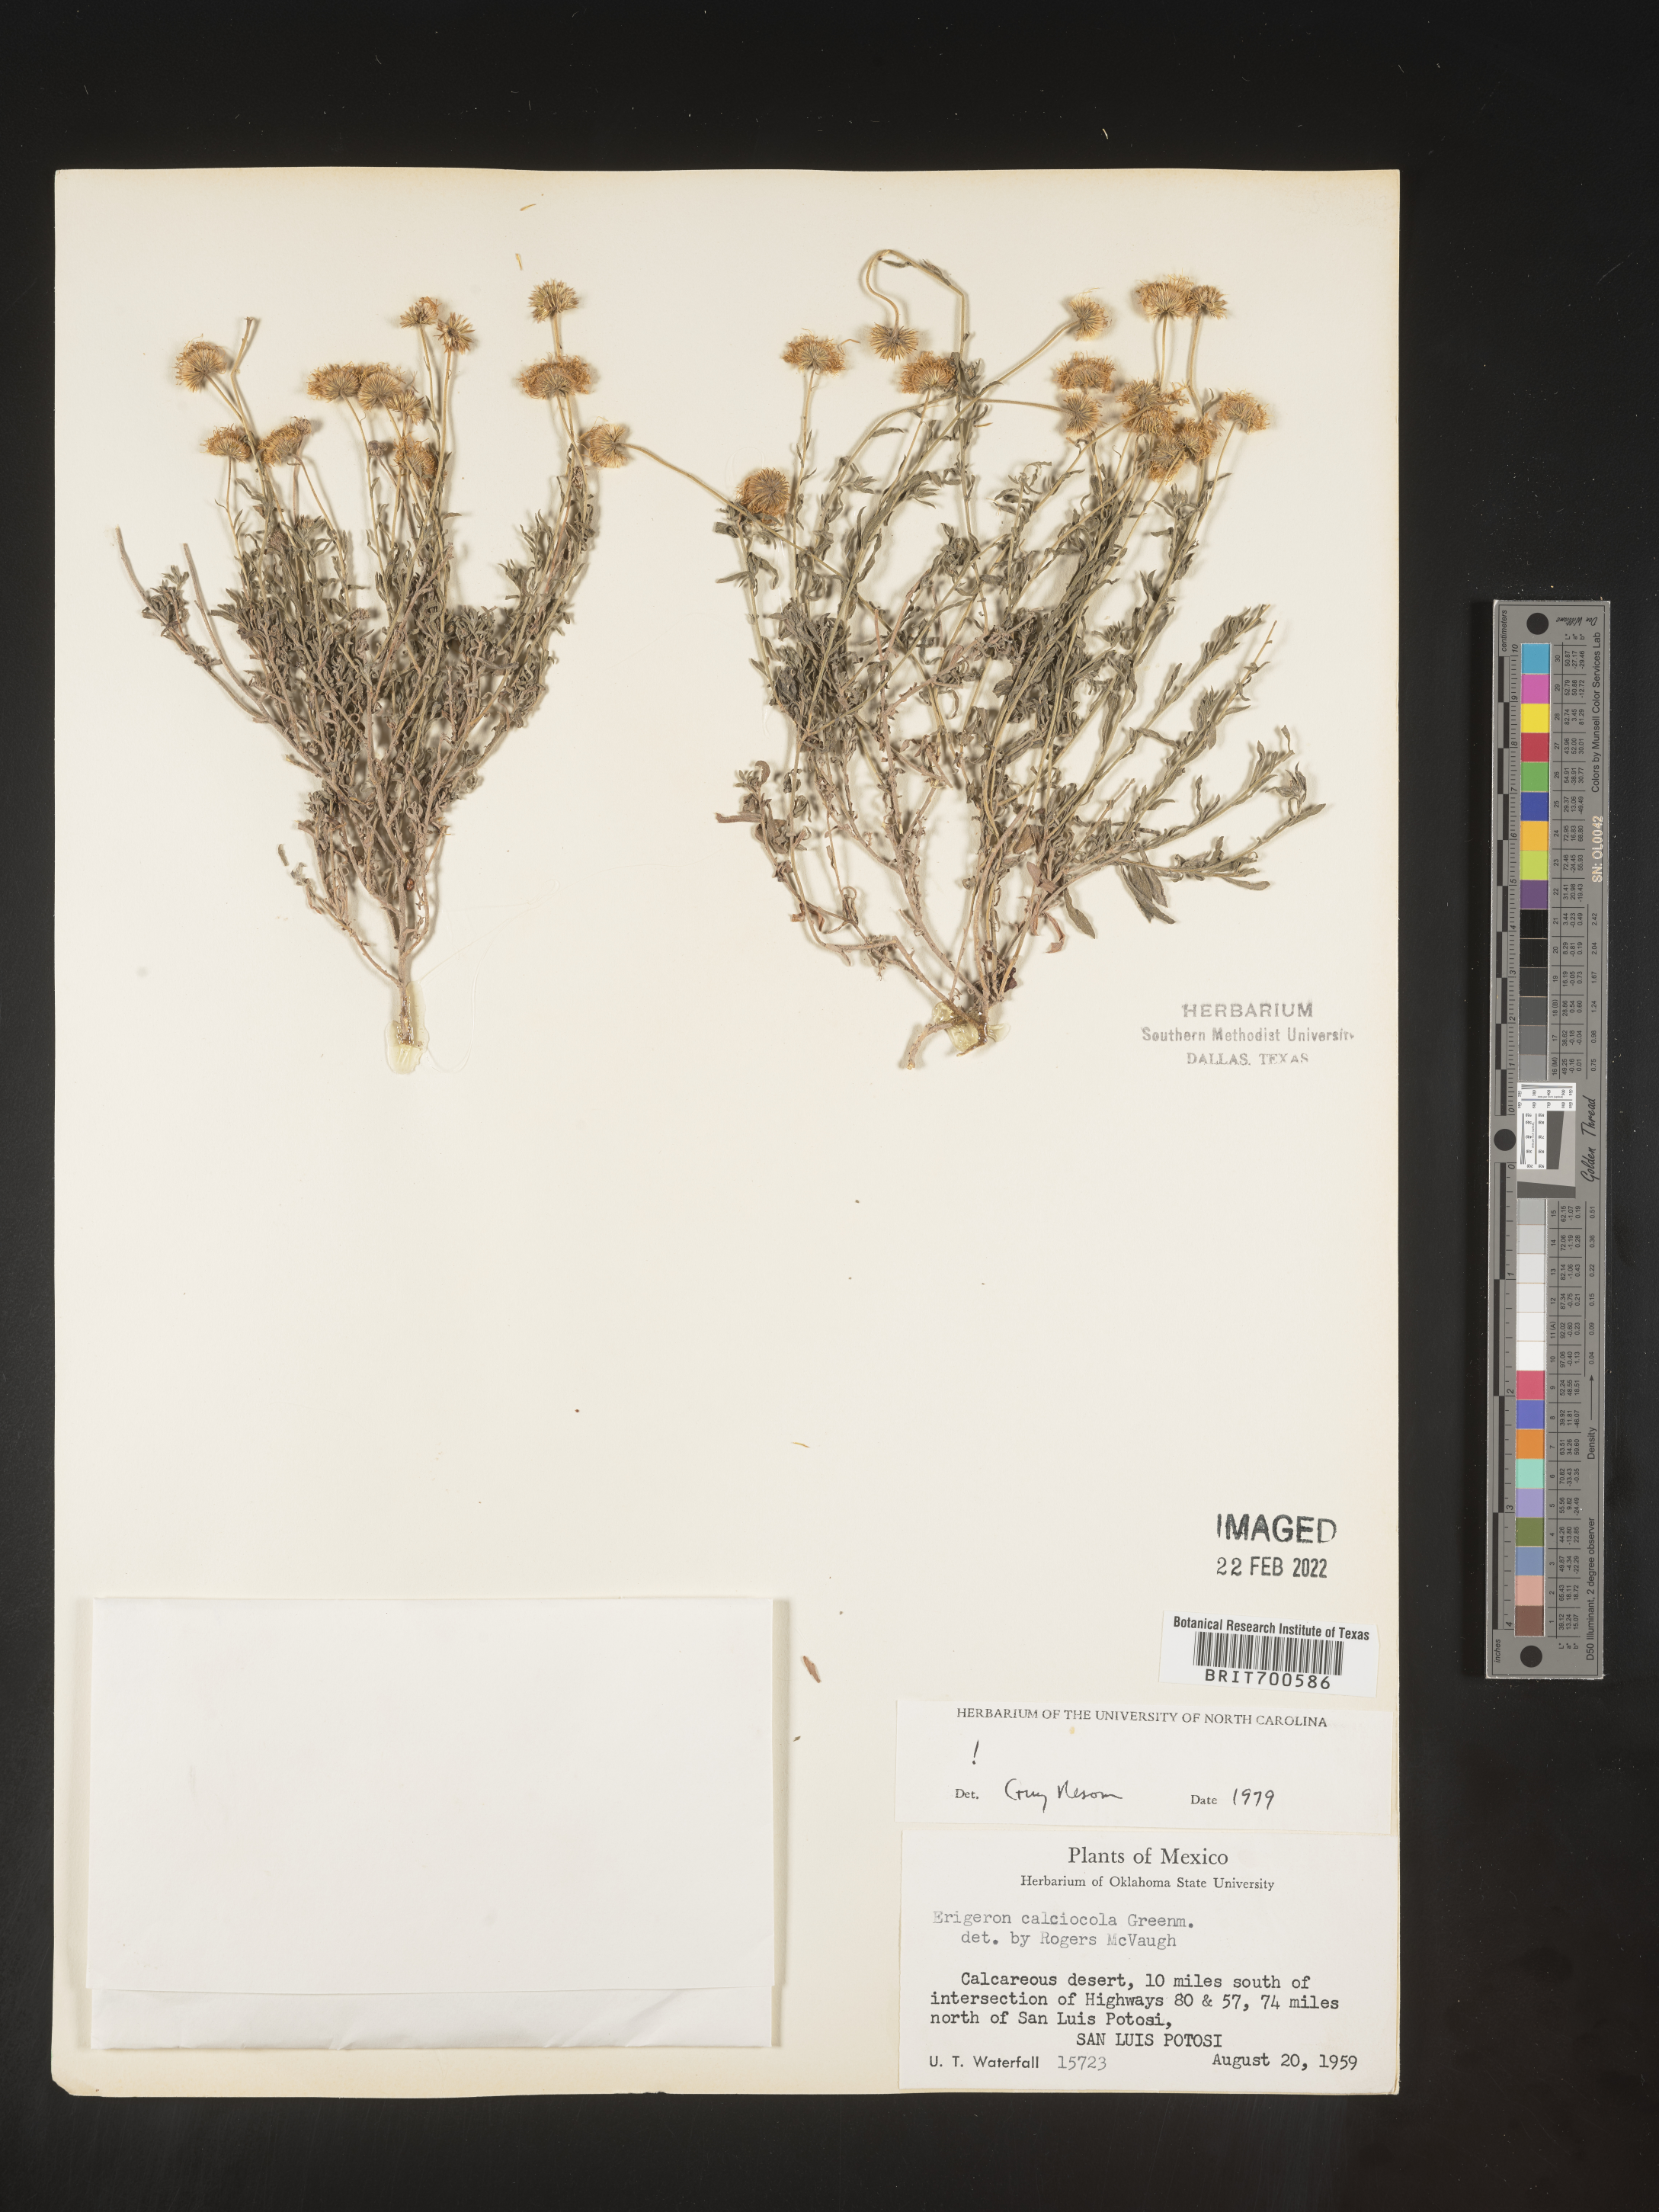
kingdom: Plantae
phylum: Tracheophyta
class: Magnoliopsida
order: Asterales
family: Asteraceae
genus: Erigeron
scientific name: Erigeron calcicola
